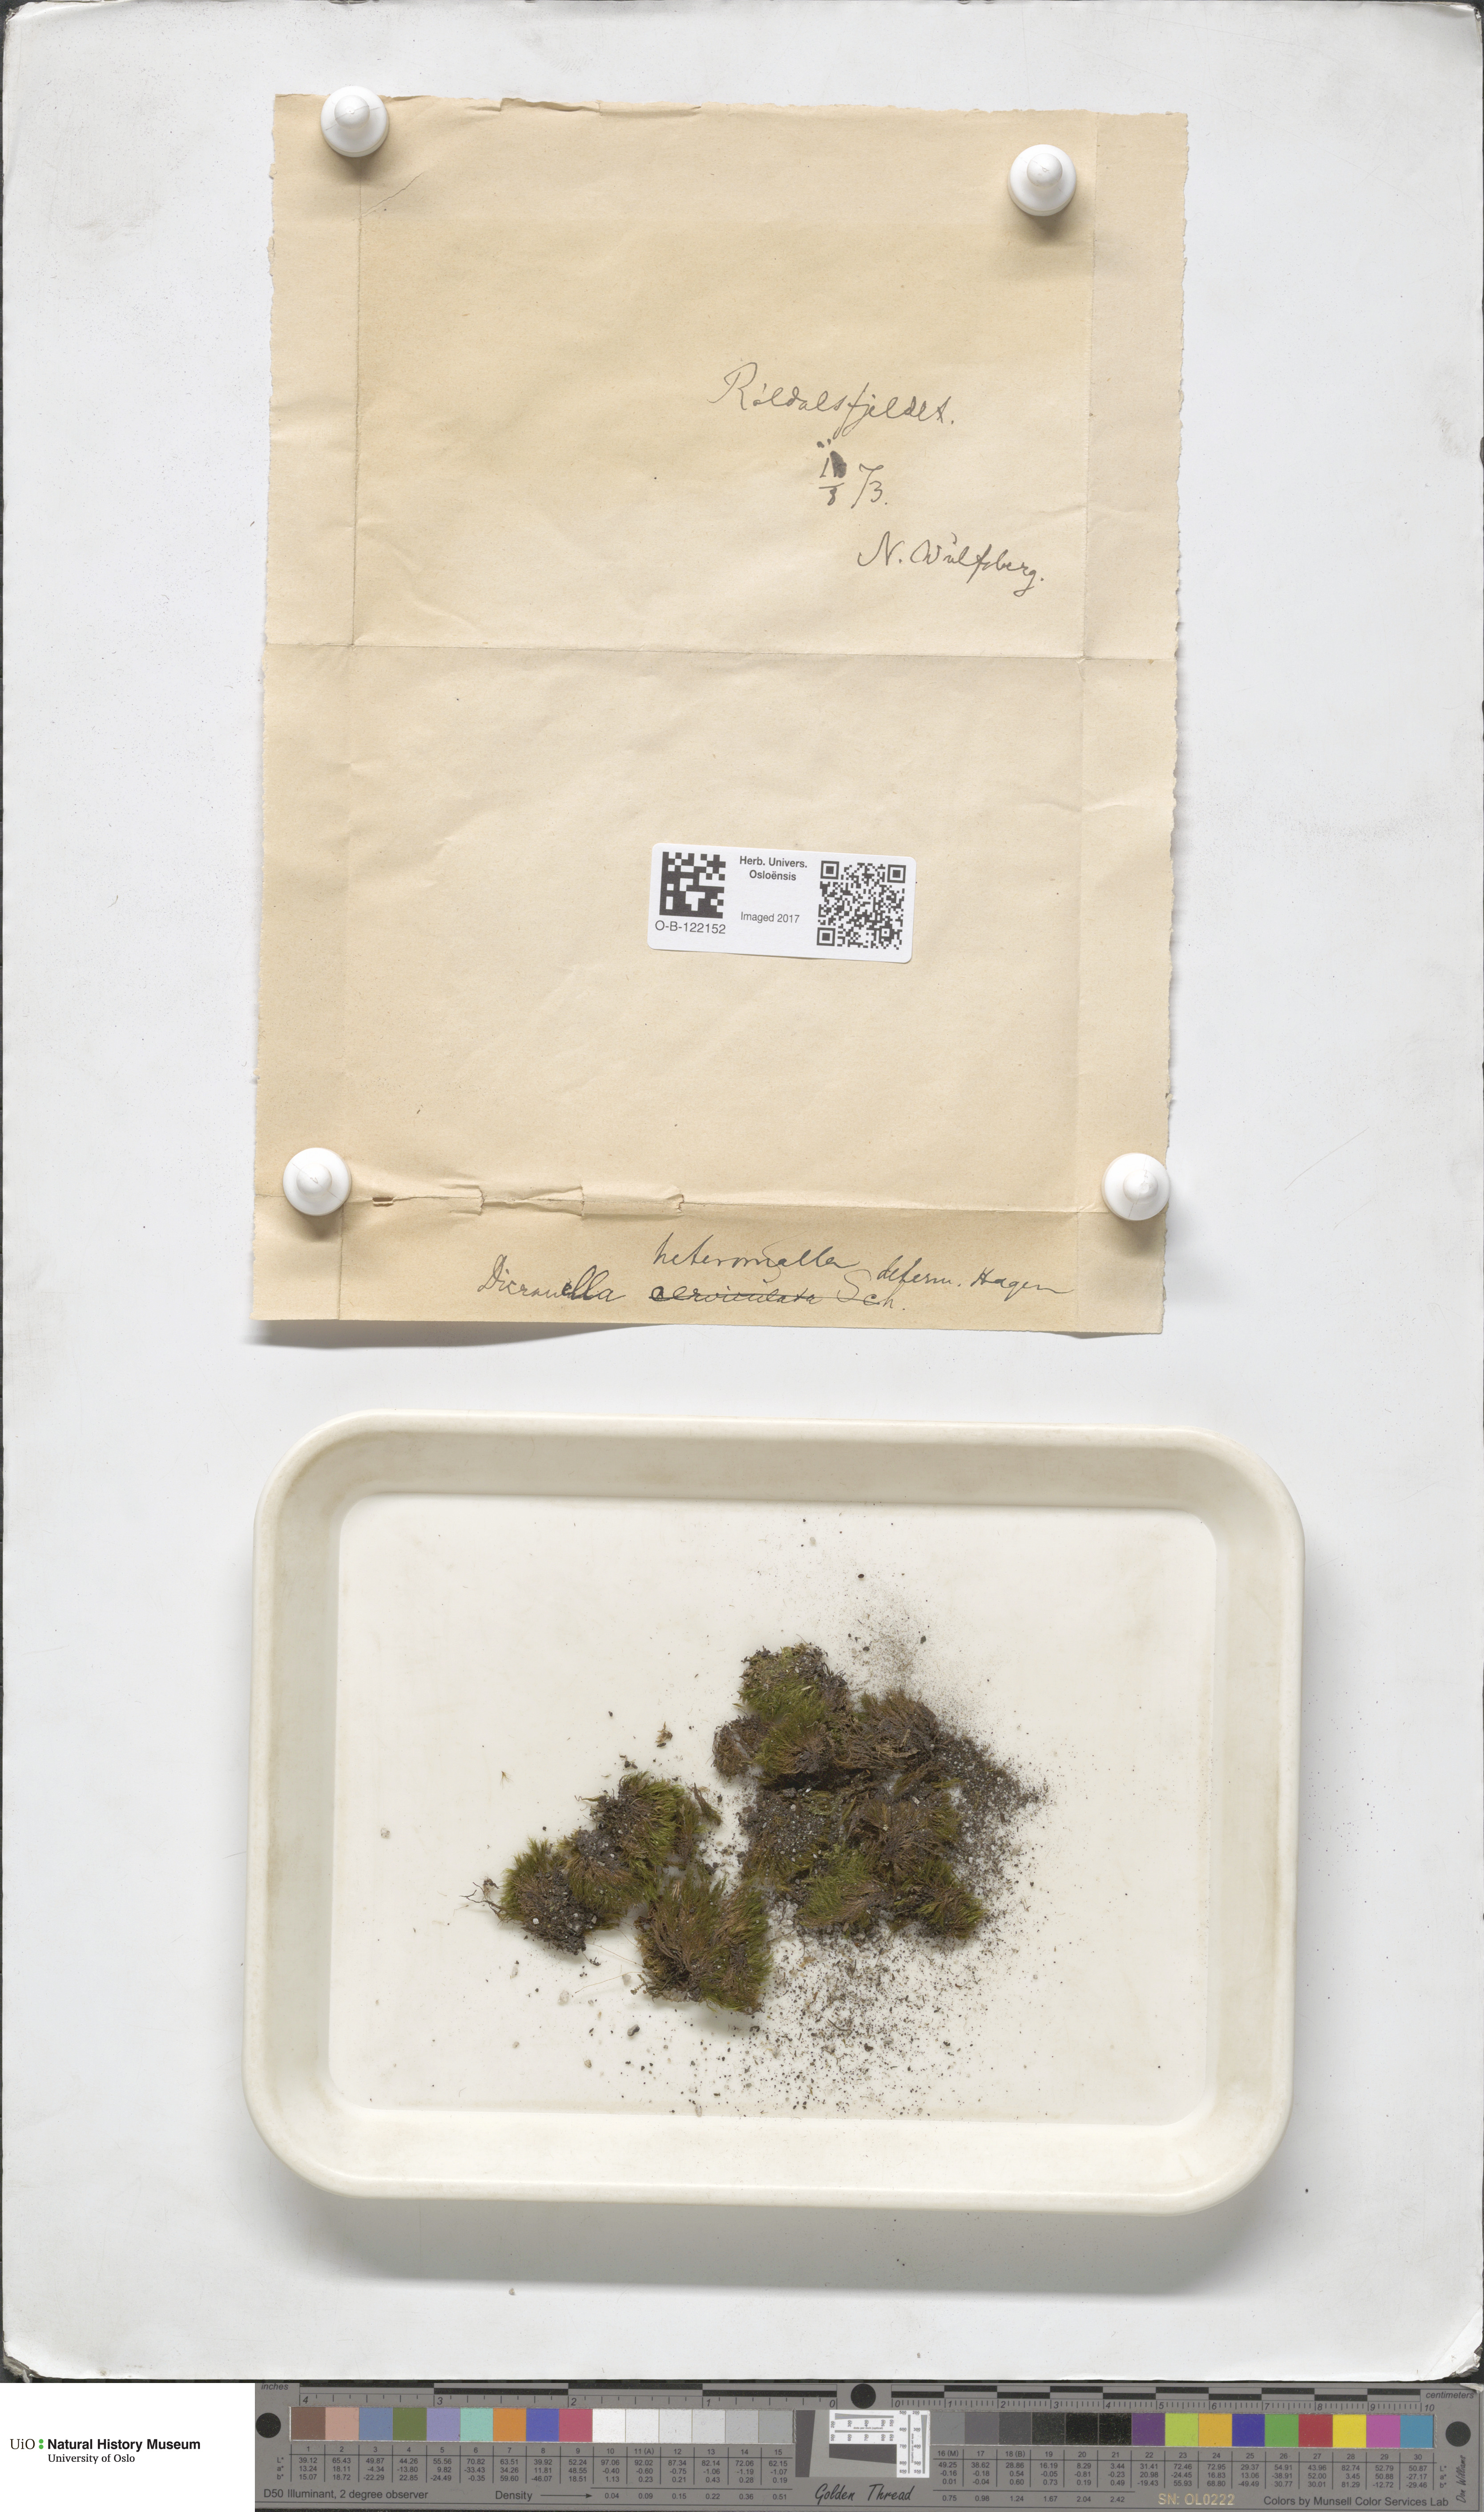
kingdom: Plantae
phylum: Bryophyta
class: Bryopsida
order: Dicranales
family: Dicranellaceae
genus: Dicranella
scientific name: Dicranella heteromalla
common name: Silky forklet moss
